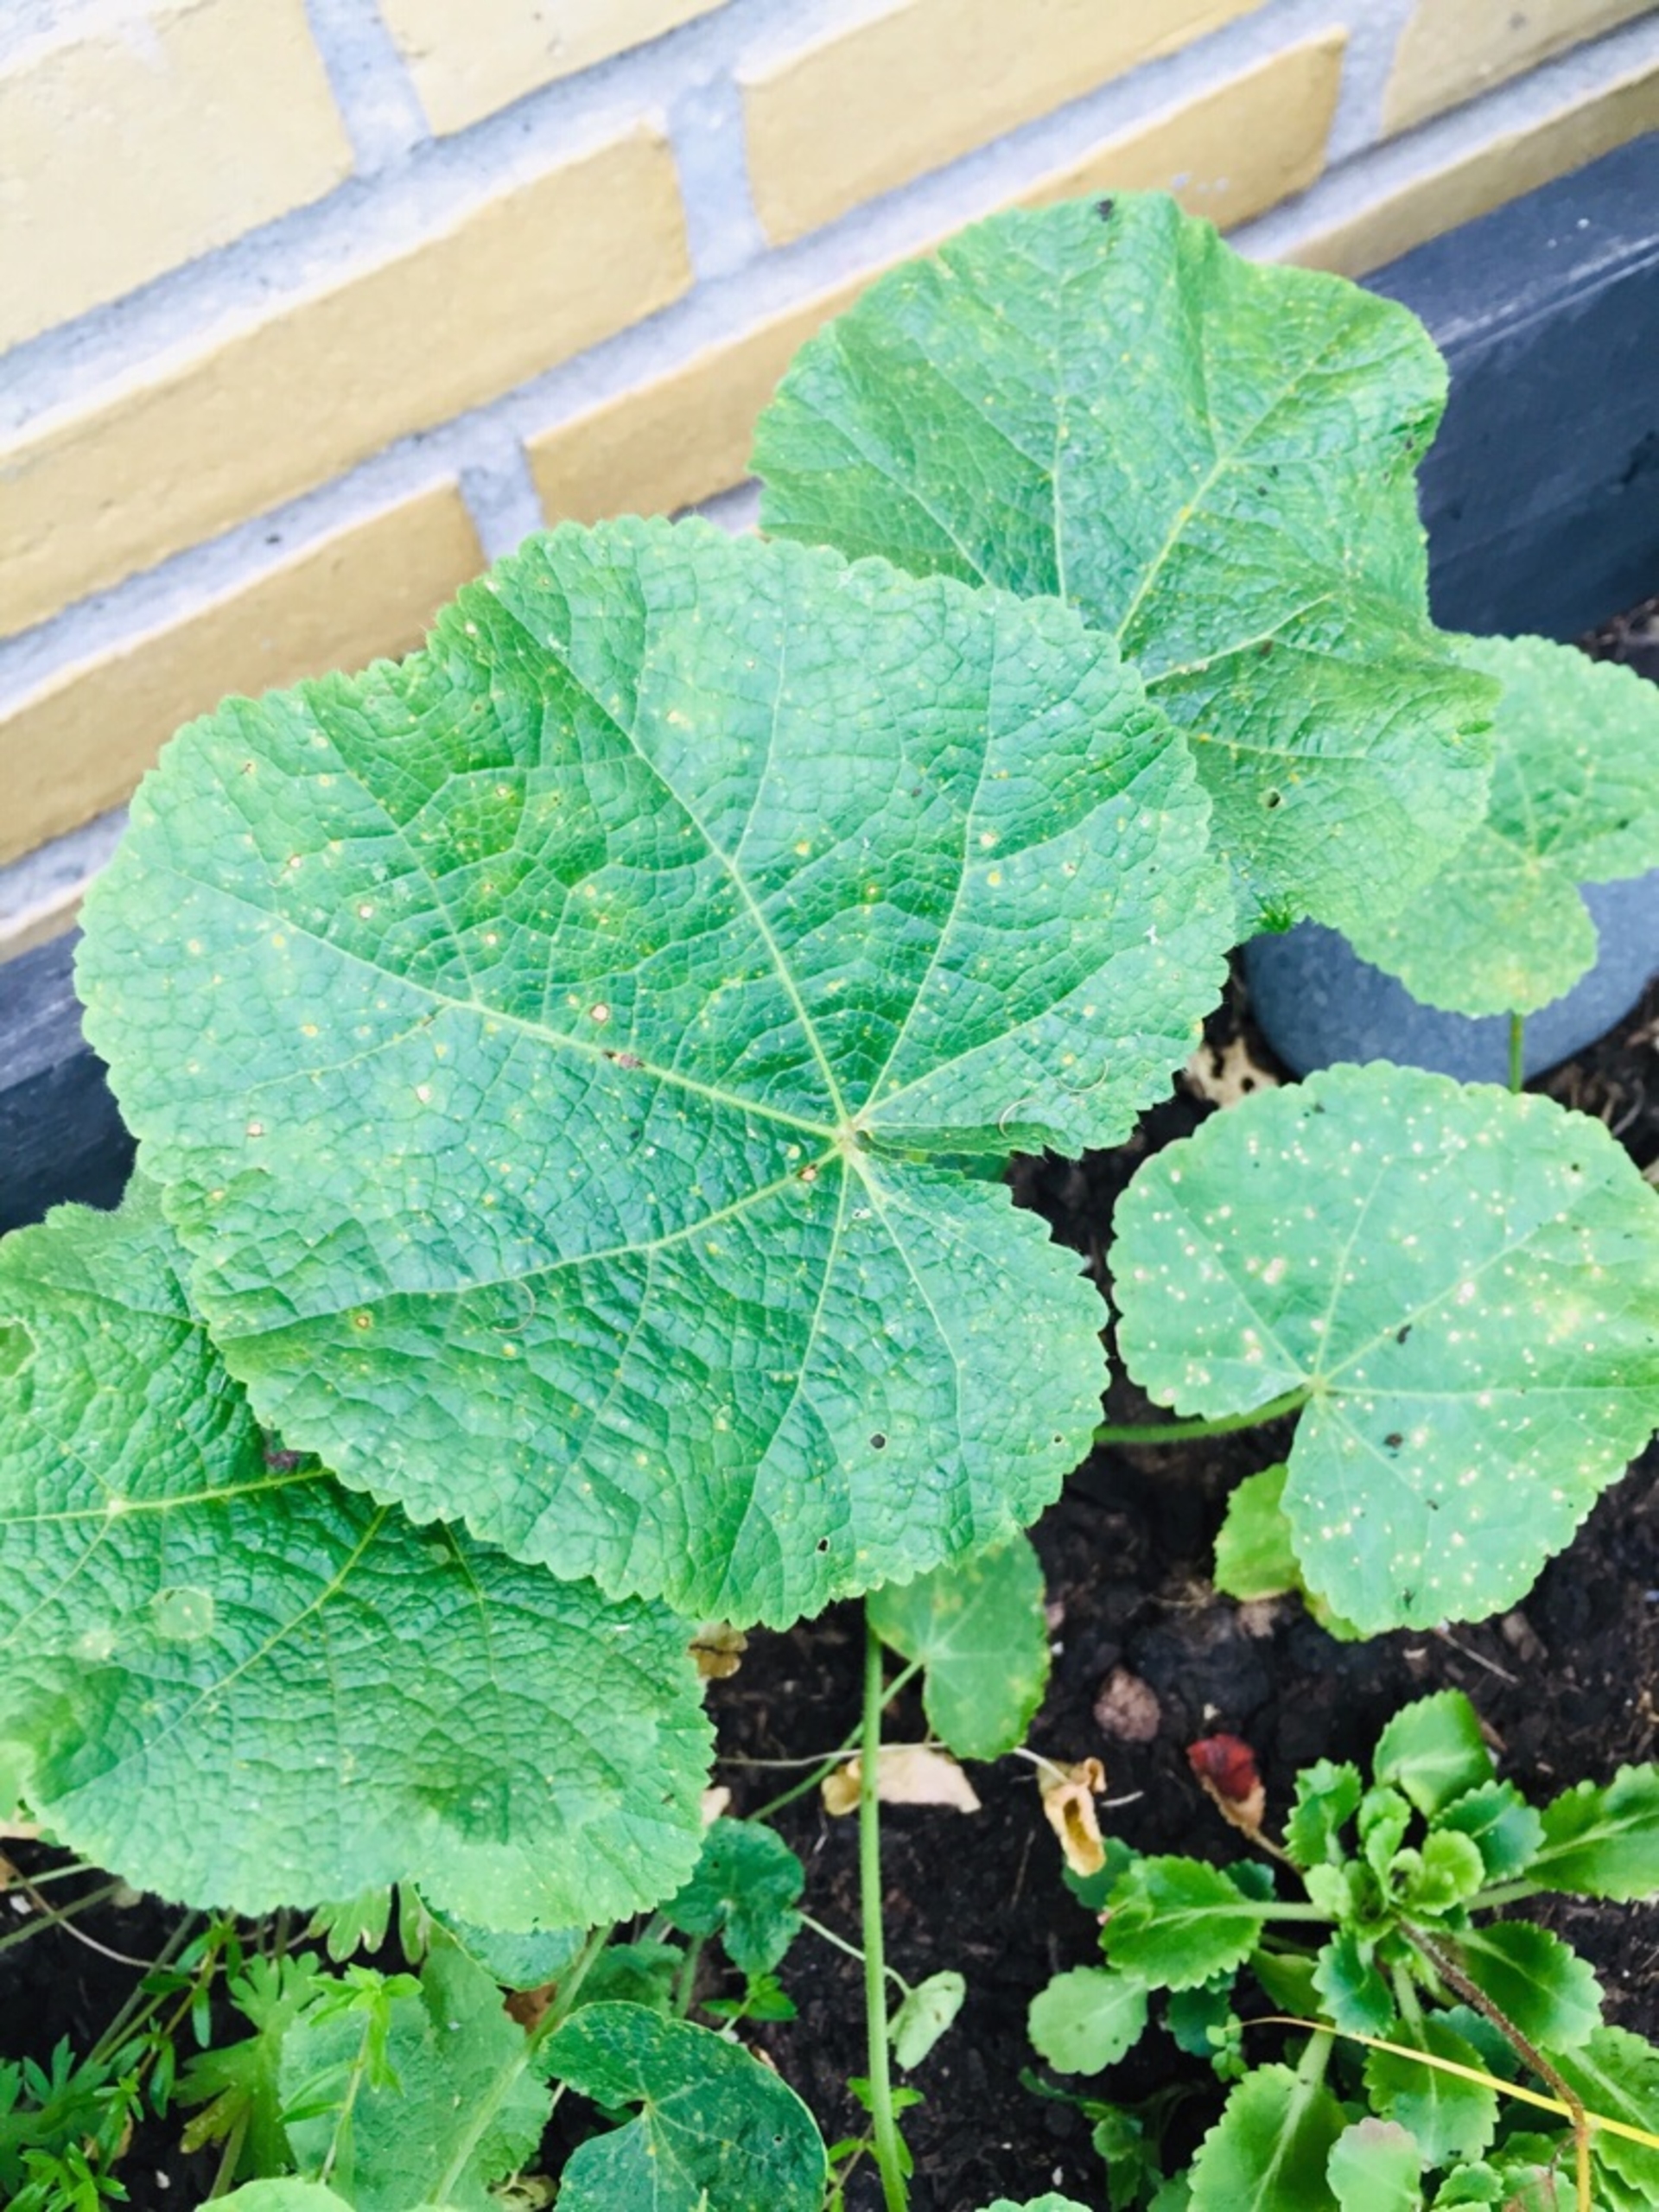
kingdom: Plantae
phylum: Tracheophyta
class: Magnoliopsida
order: Malvales
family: Malvaceae
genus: Alcea
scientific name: Alcea rosea
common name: Have-stokrose
